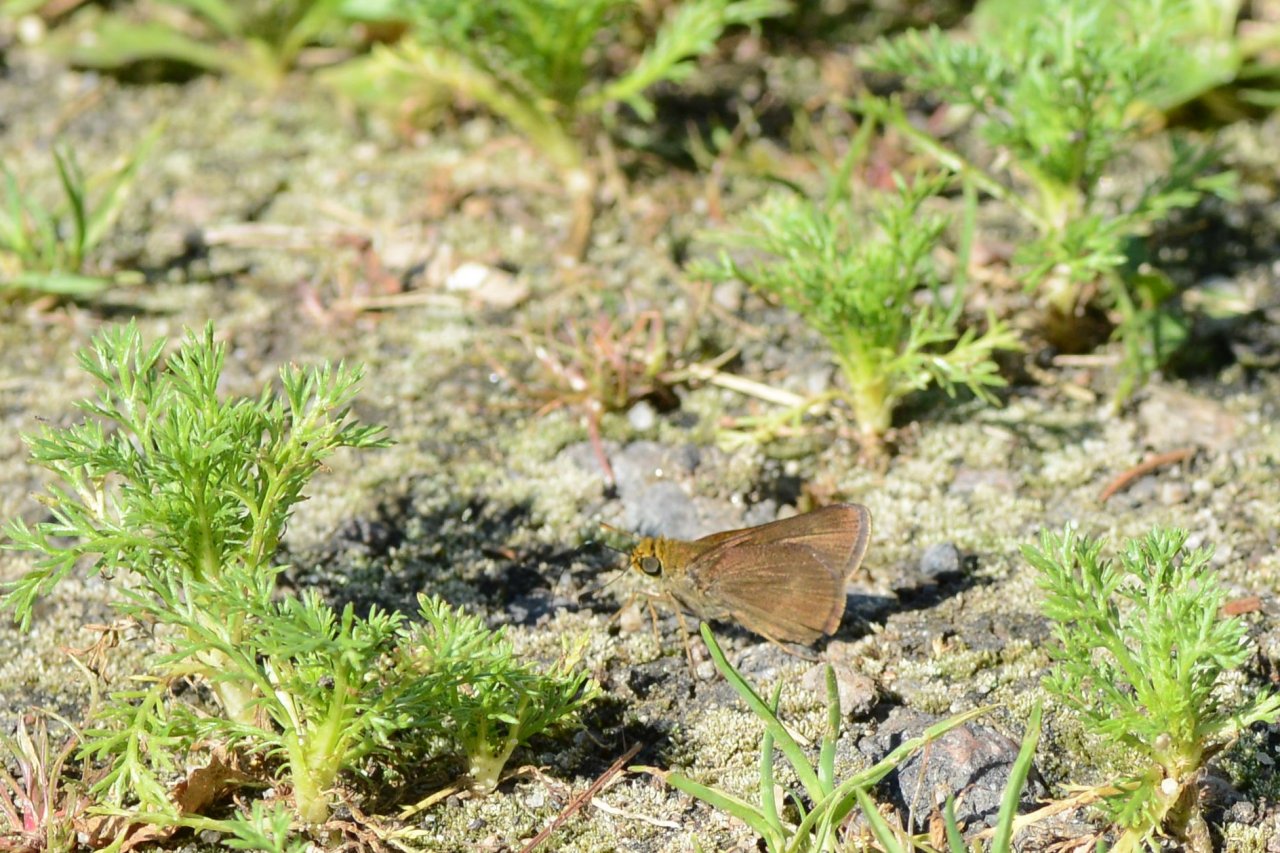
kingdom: Animalia
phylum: Arthropoda
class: Insecta
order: Lepidoptera
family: Hesperiidae
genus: Euphyes
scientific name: Euphyes vestris
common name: Dun Skipper
